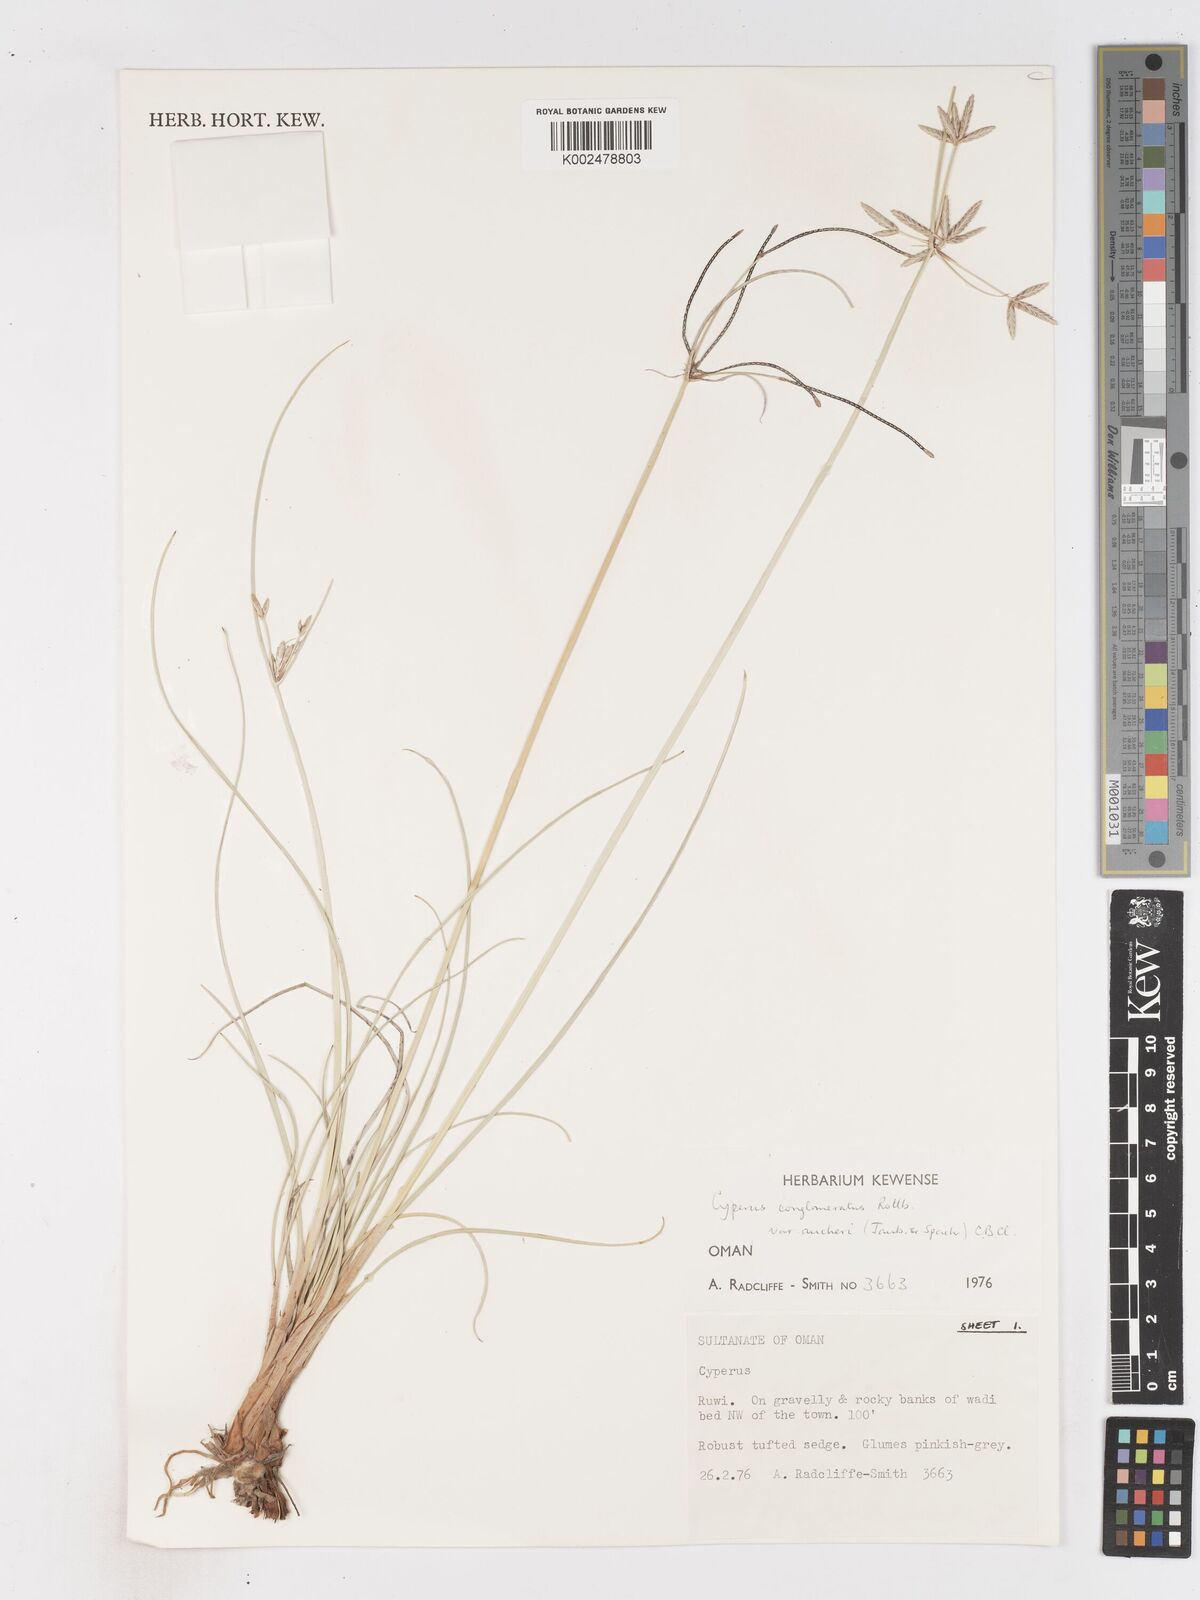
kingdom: Plantae
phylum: Tracheophyta
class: Liliopsida
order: Poales
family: Cyperaceae
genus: Cyperus
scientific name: Cyperus aucheri
